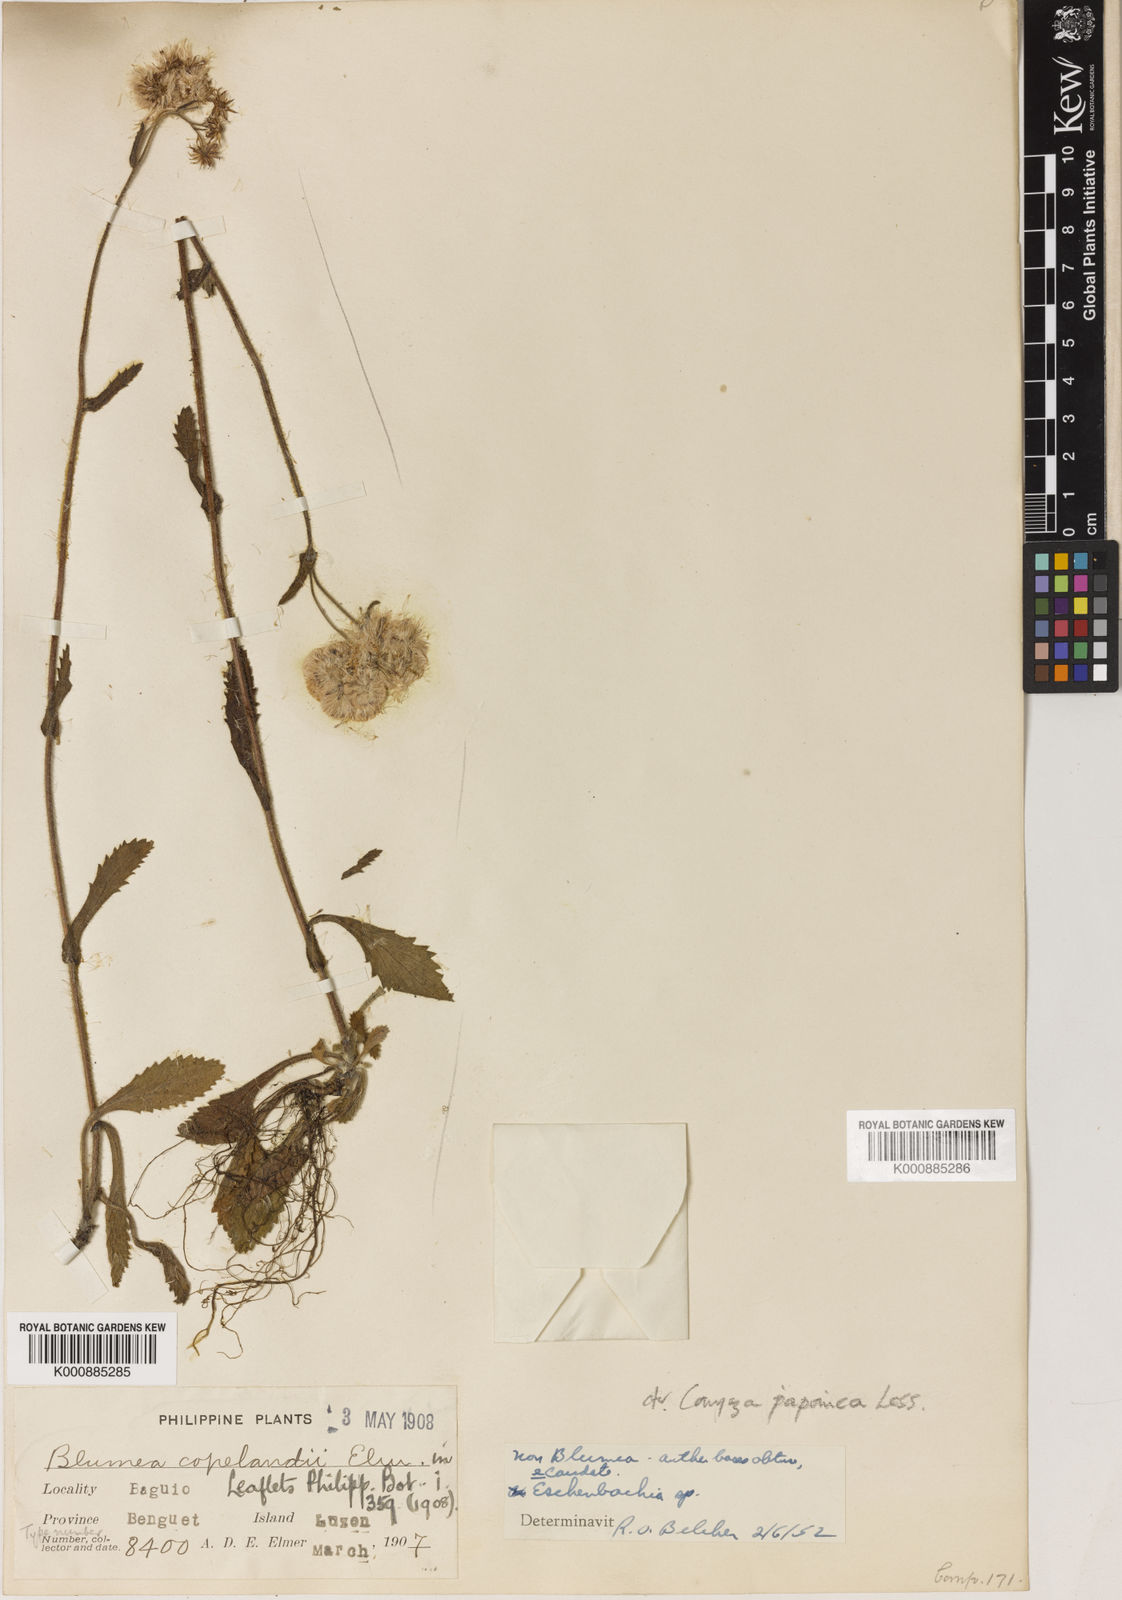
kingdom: Plantae
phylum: Tracheophyta
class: Magnoliopsida
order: Asterales
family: Asteraceae
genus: Eschenbachia
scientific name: Eschenbachia japonica
